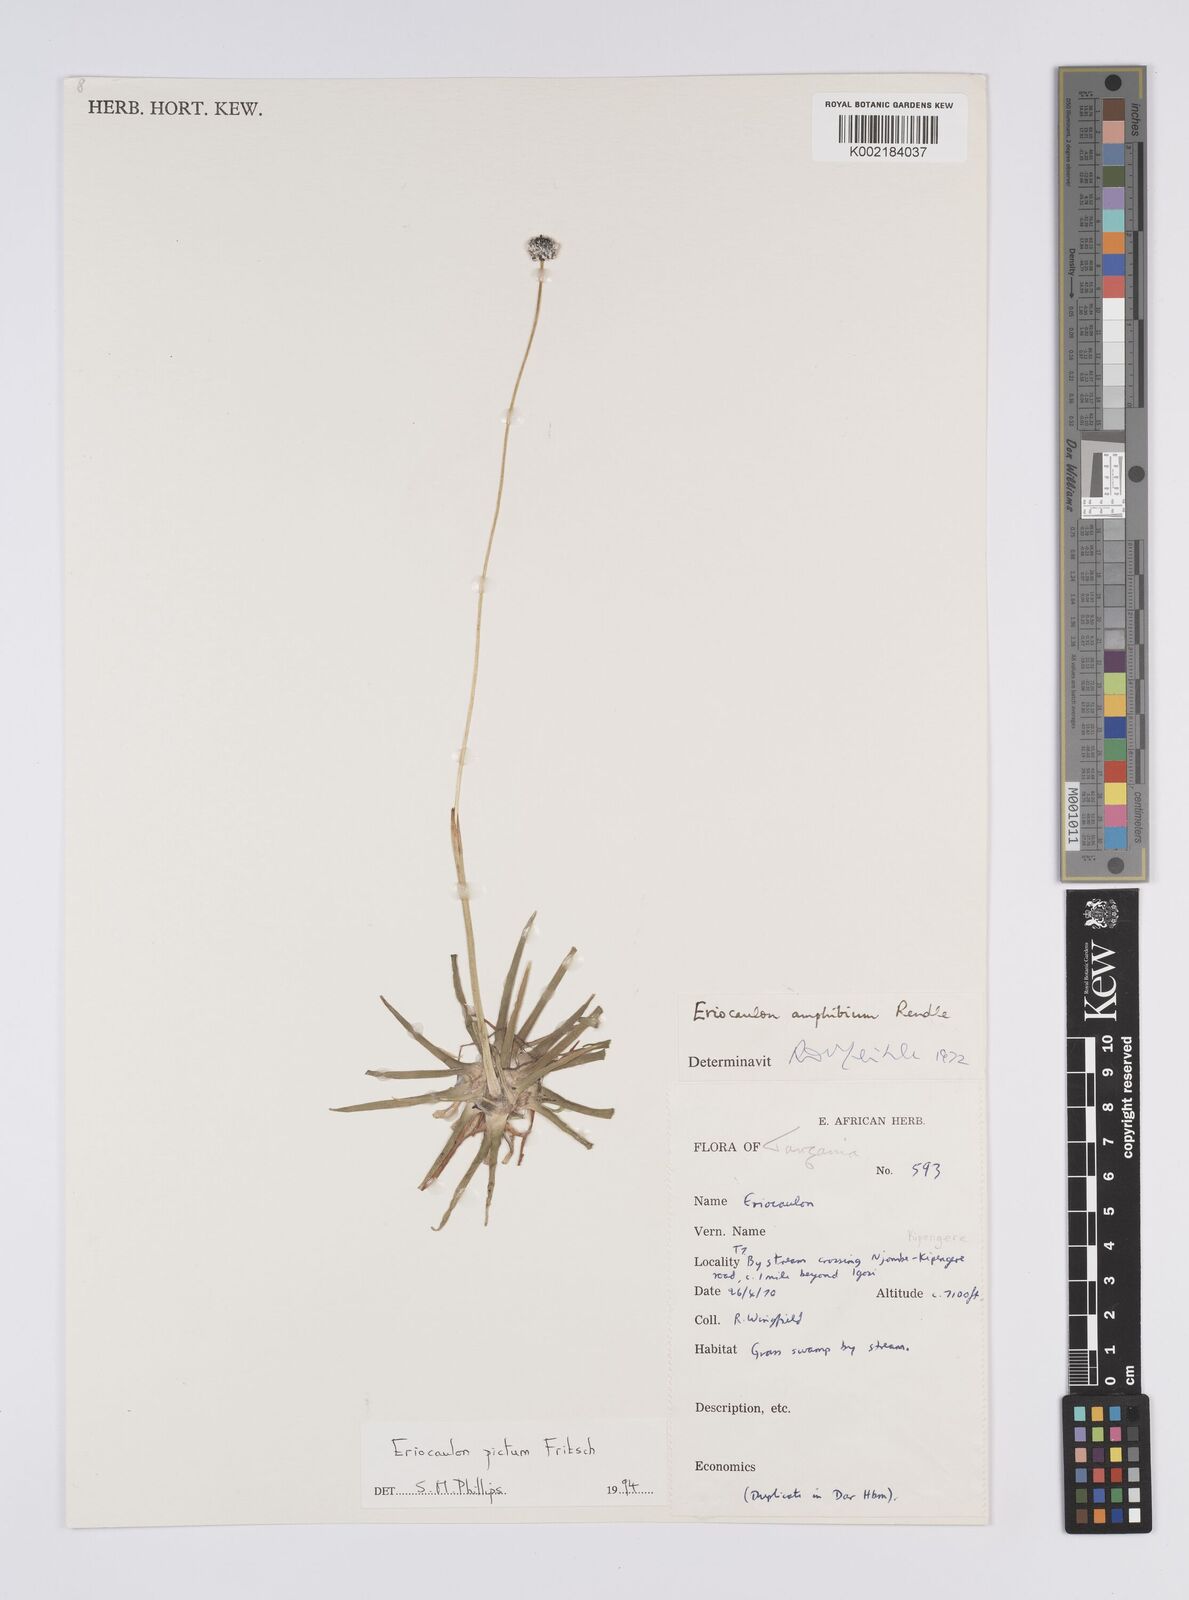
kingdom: Plantae
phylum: Tracheophyta
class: Liliopsida
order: Poales
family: Eriocaulaceae
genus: Eriocaulon
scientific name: Eriocaulon pictum
